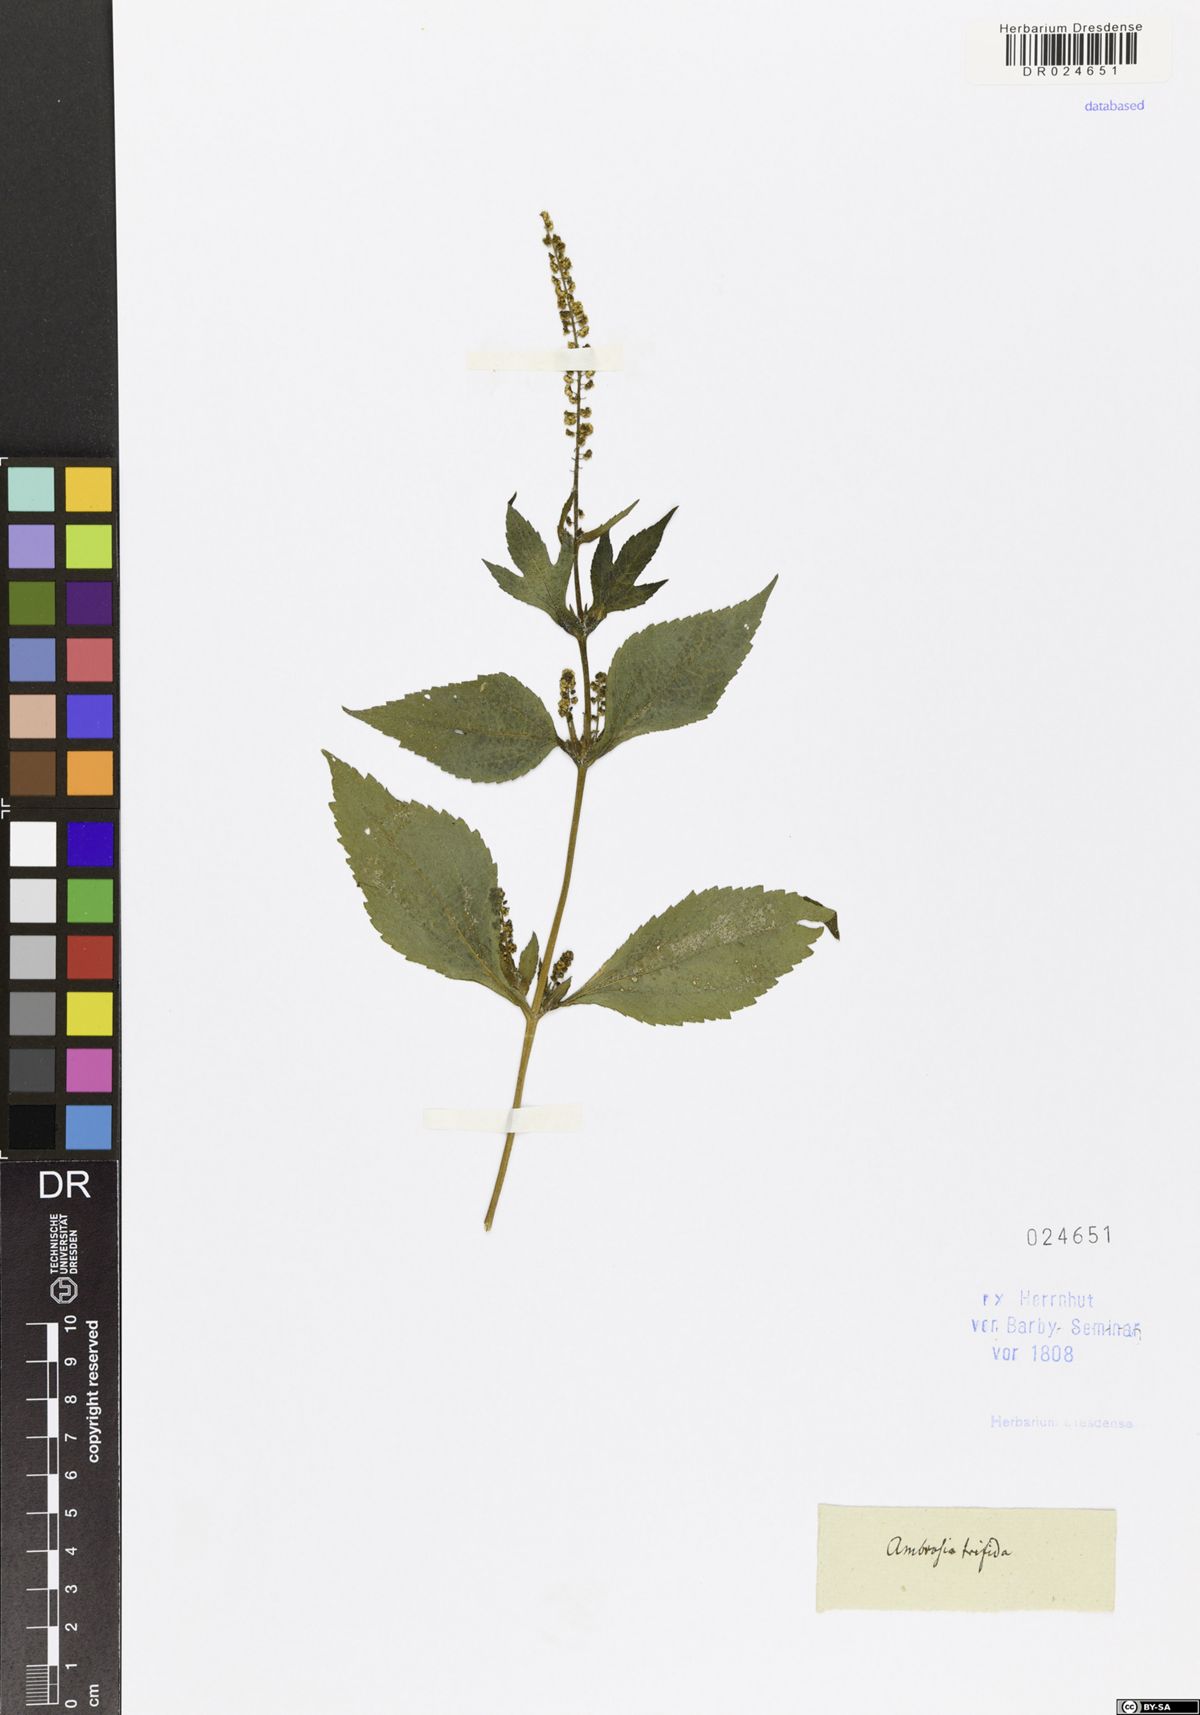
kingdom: Plantae
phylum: Tracheophyta
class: Magnoliopsida
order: Asterales
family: Asteraceae
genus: Ambrosia
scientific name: Ambrosia trifida
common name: Giant ragweed
